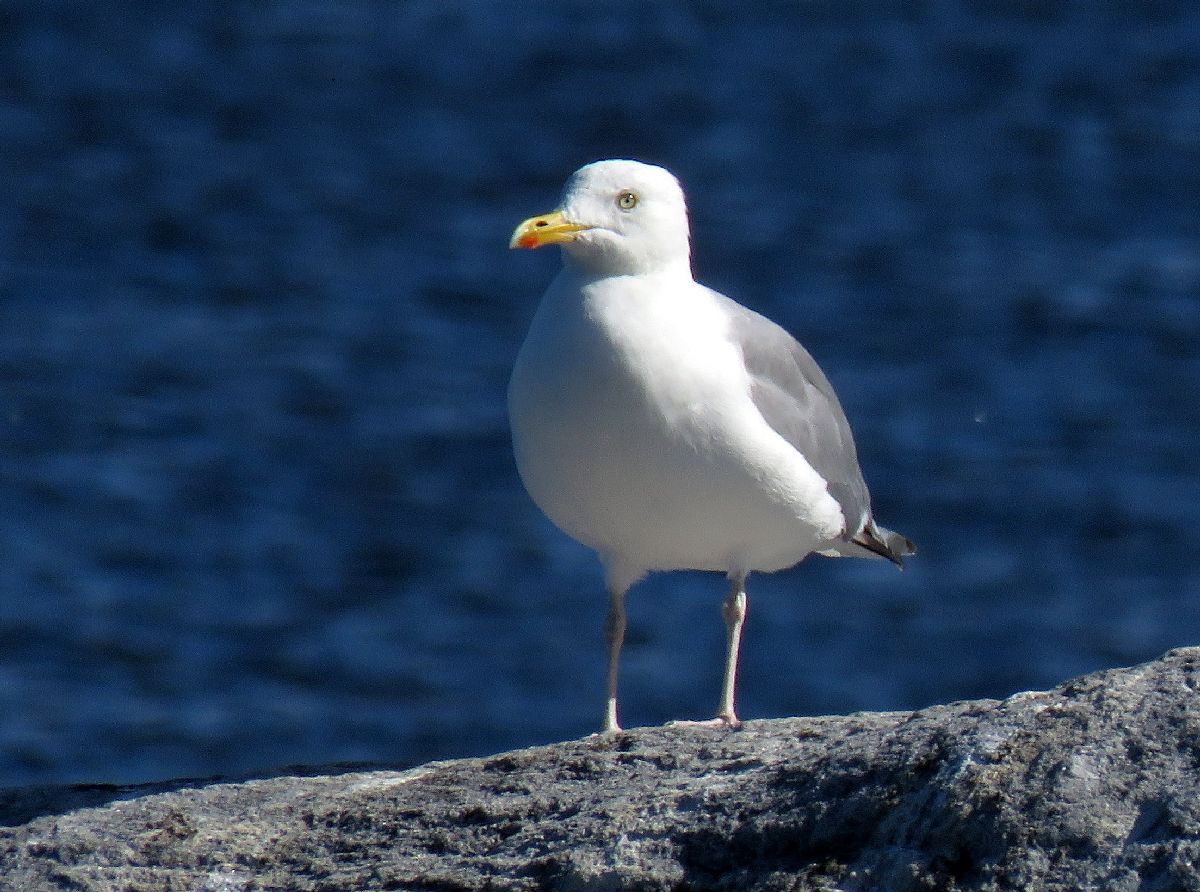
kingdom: Animalia
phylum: Chordata
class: Aves
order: Charadriiformes
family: Laridae
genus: Larus
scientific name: Larus argentatus
